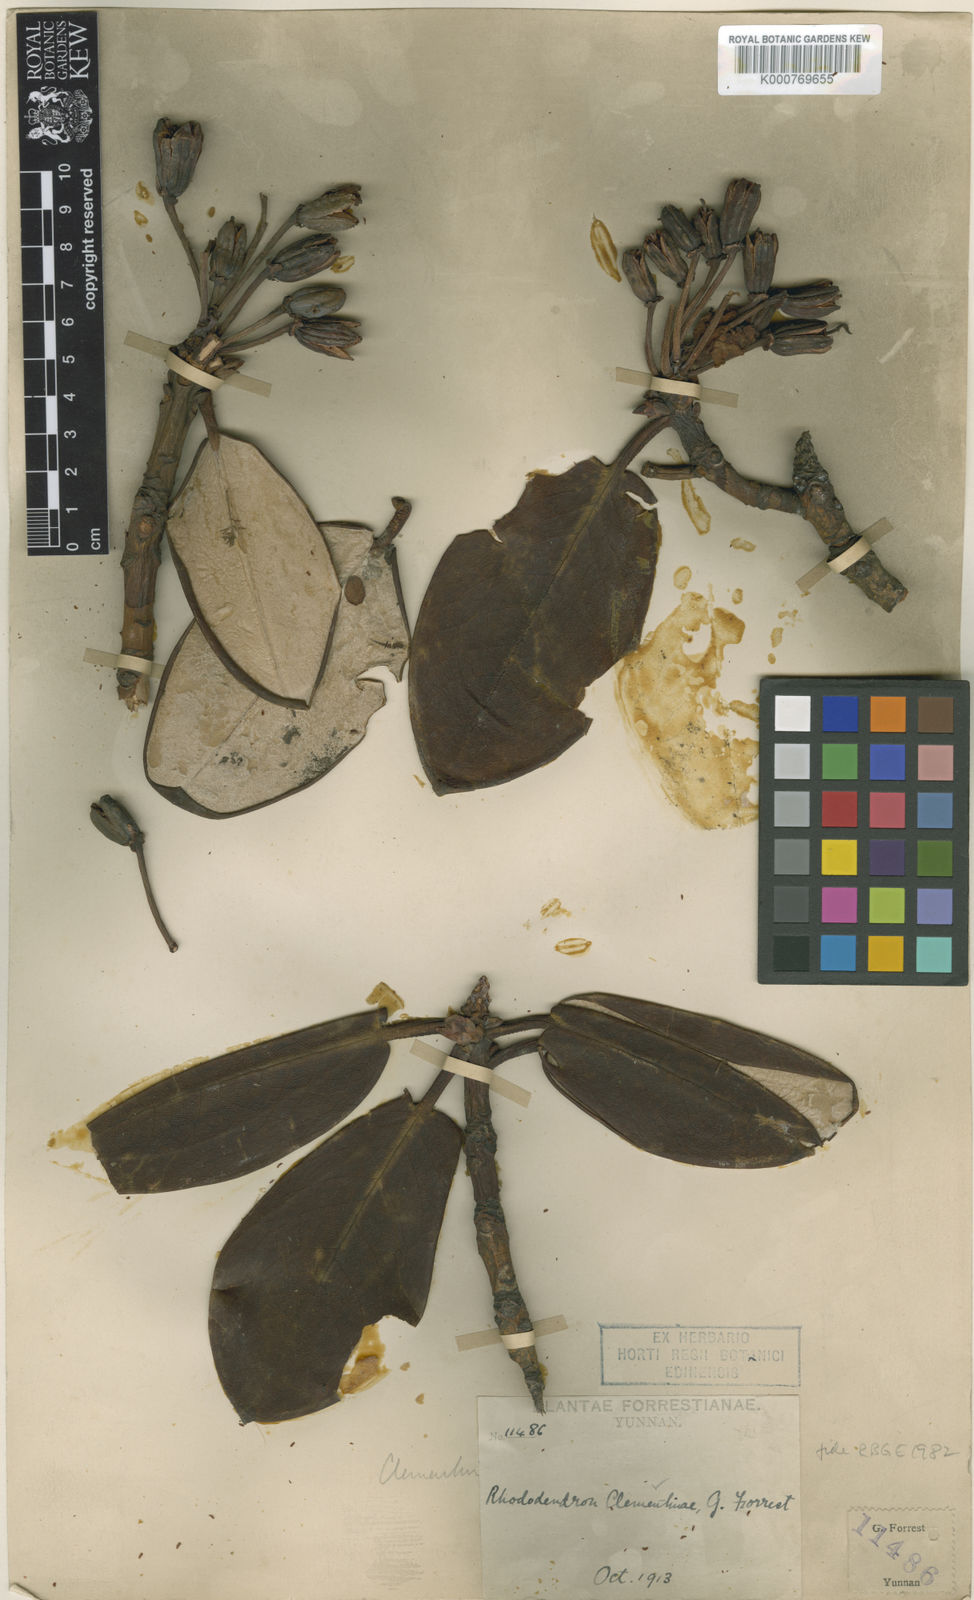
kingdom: Plantae
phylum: Tracheophyta
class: Magnoliopsida
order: Ericales
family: Ericaceae
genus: Rhododendron
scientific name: Rhododendron
